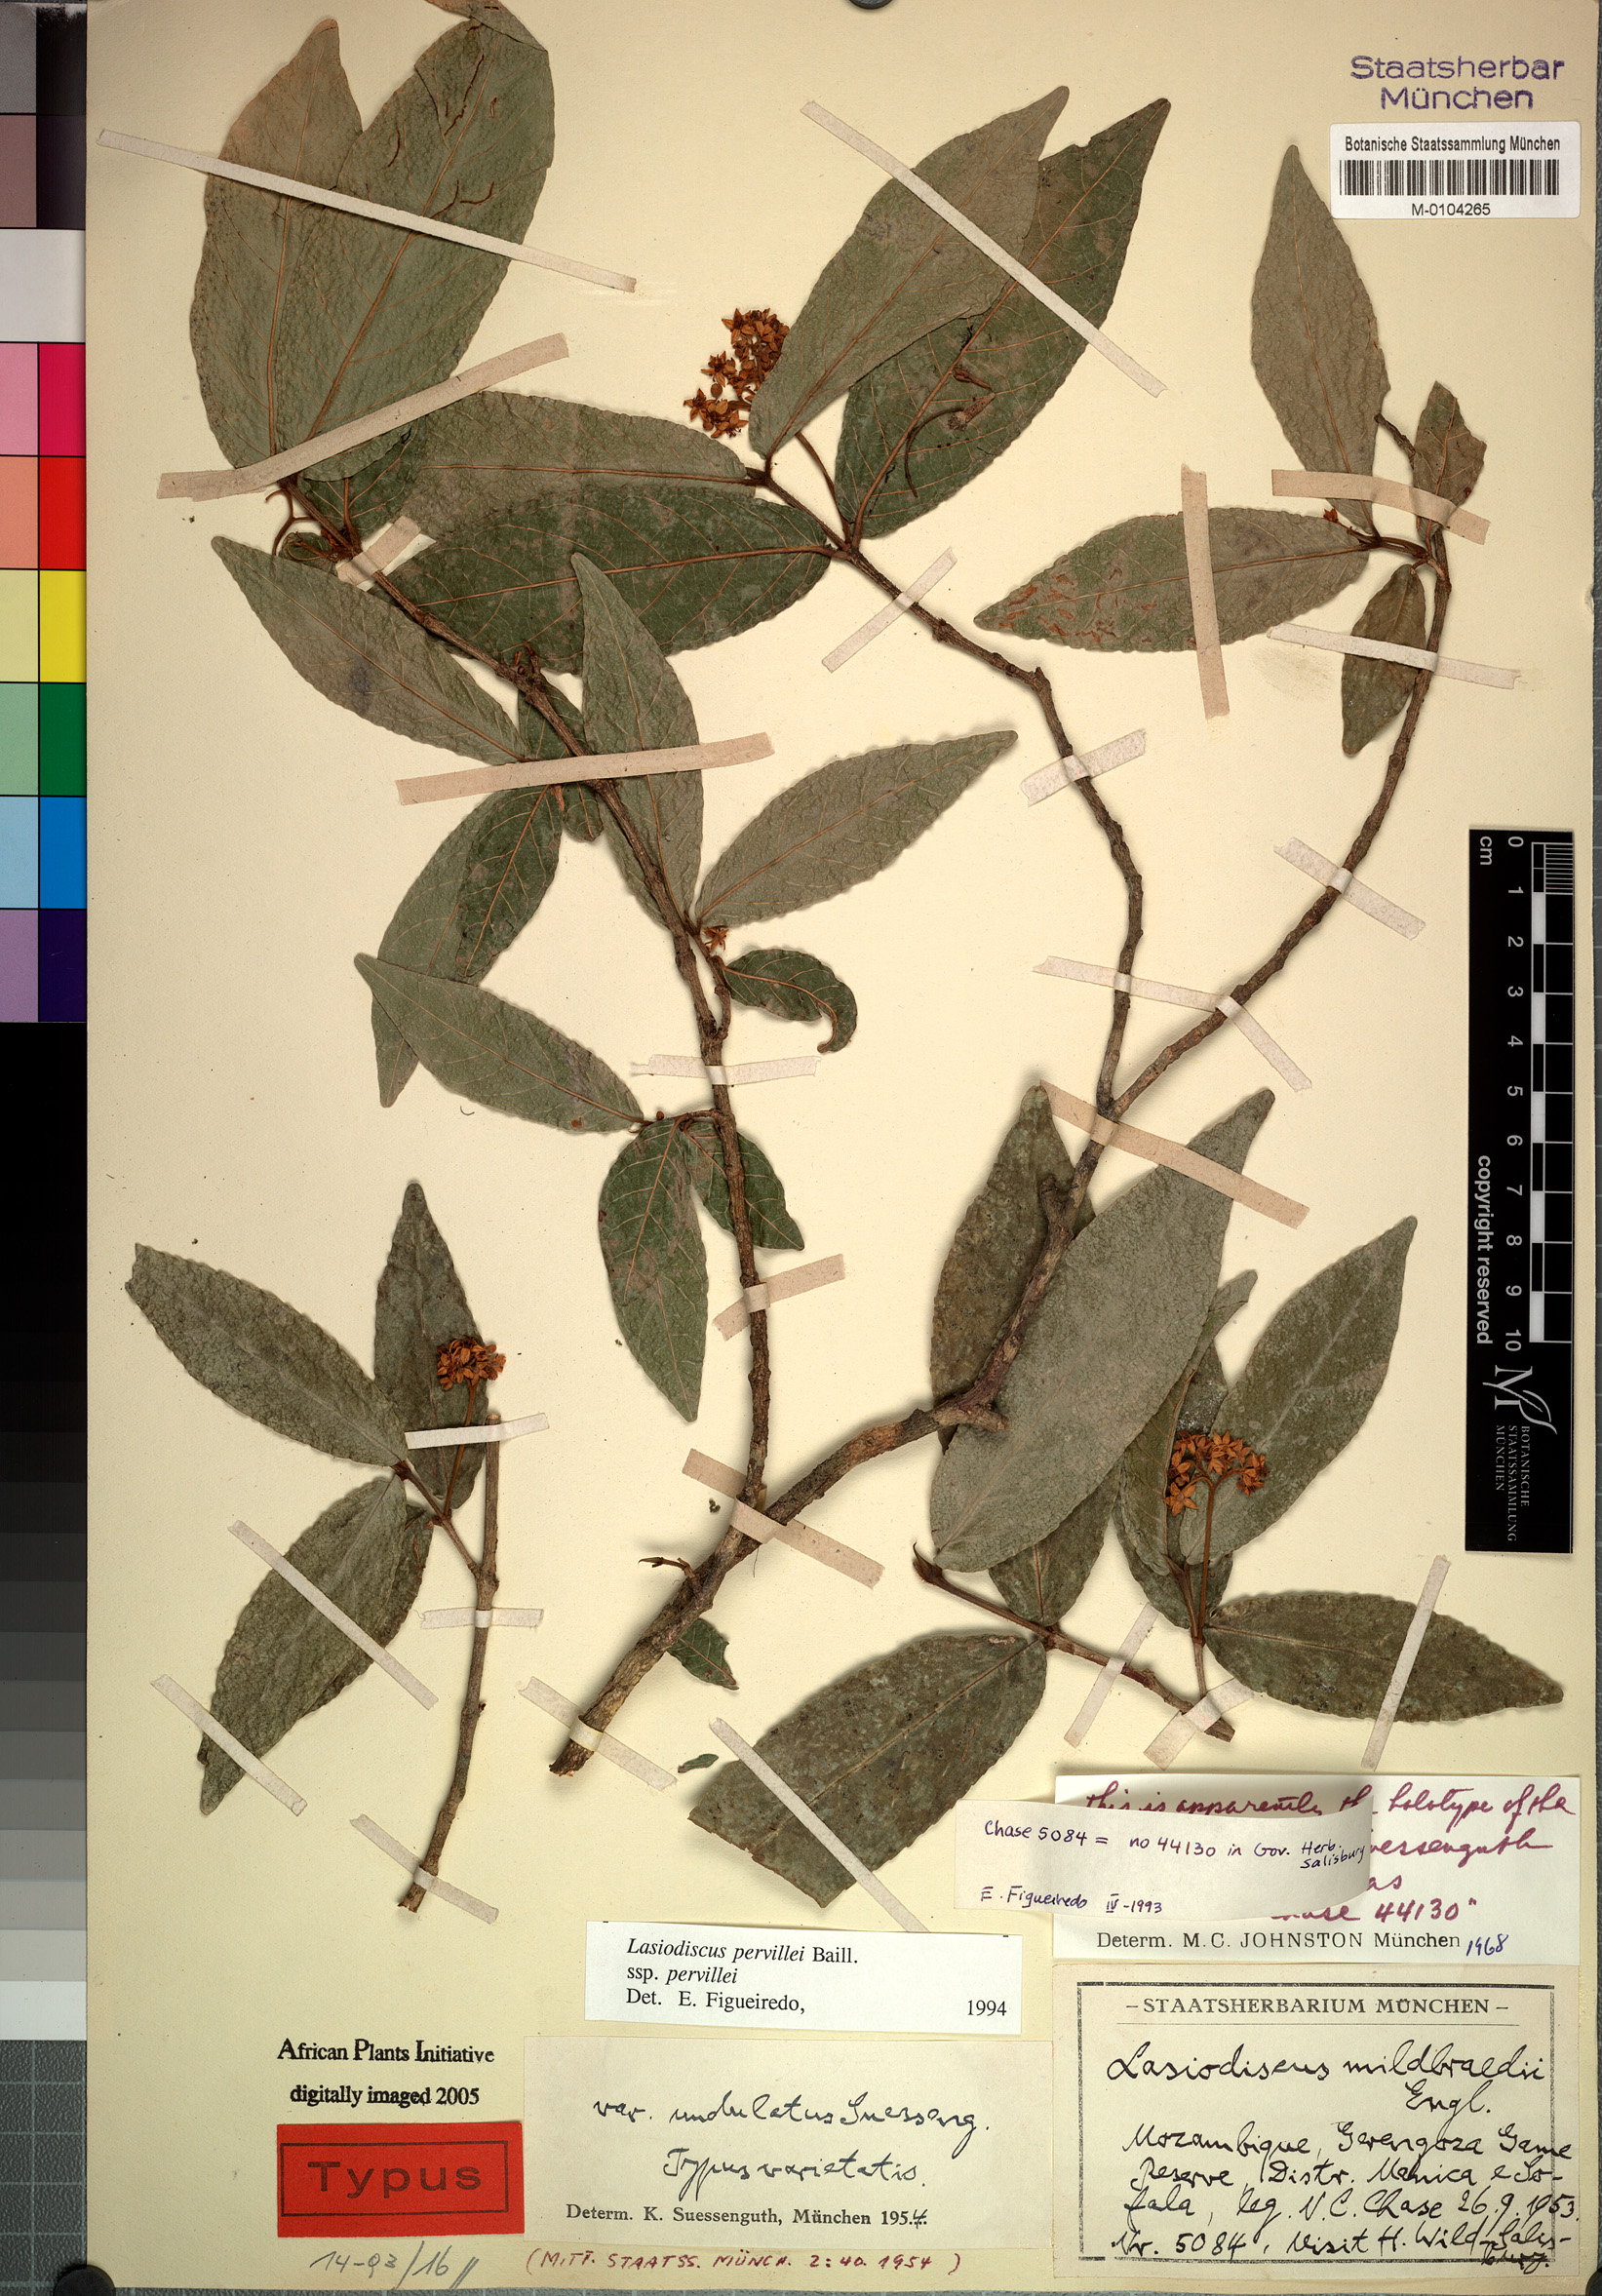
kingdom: Plantae
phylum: Tracheophyta
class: Magnoliopsida
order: Rosales
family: Rhamnaceae
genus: Lasiodiscus
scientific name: Lasiodiscus pervillei
